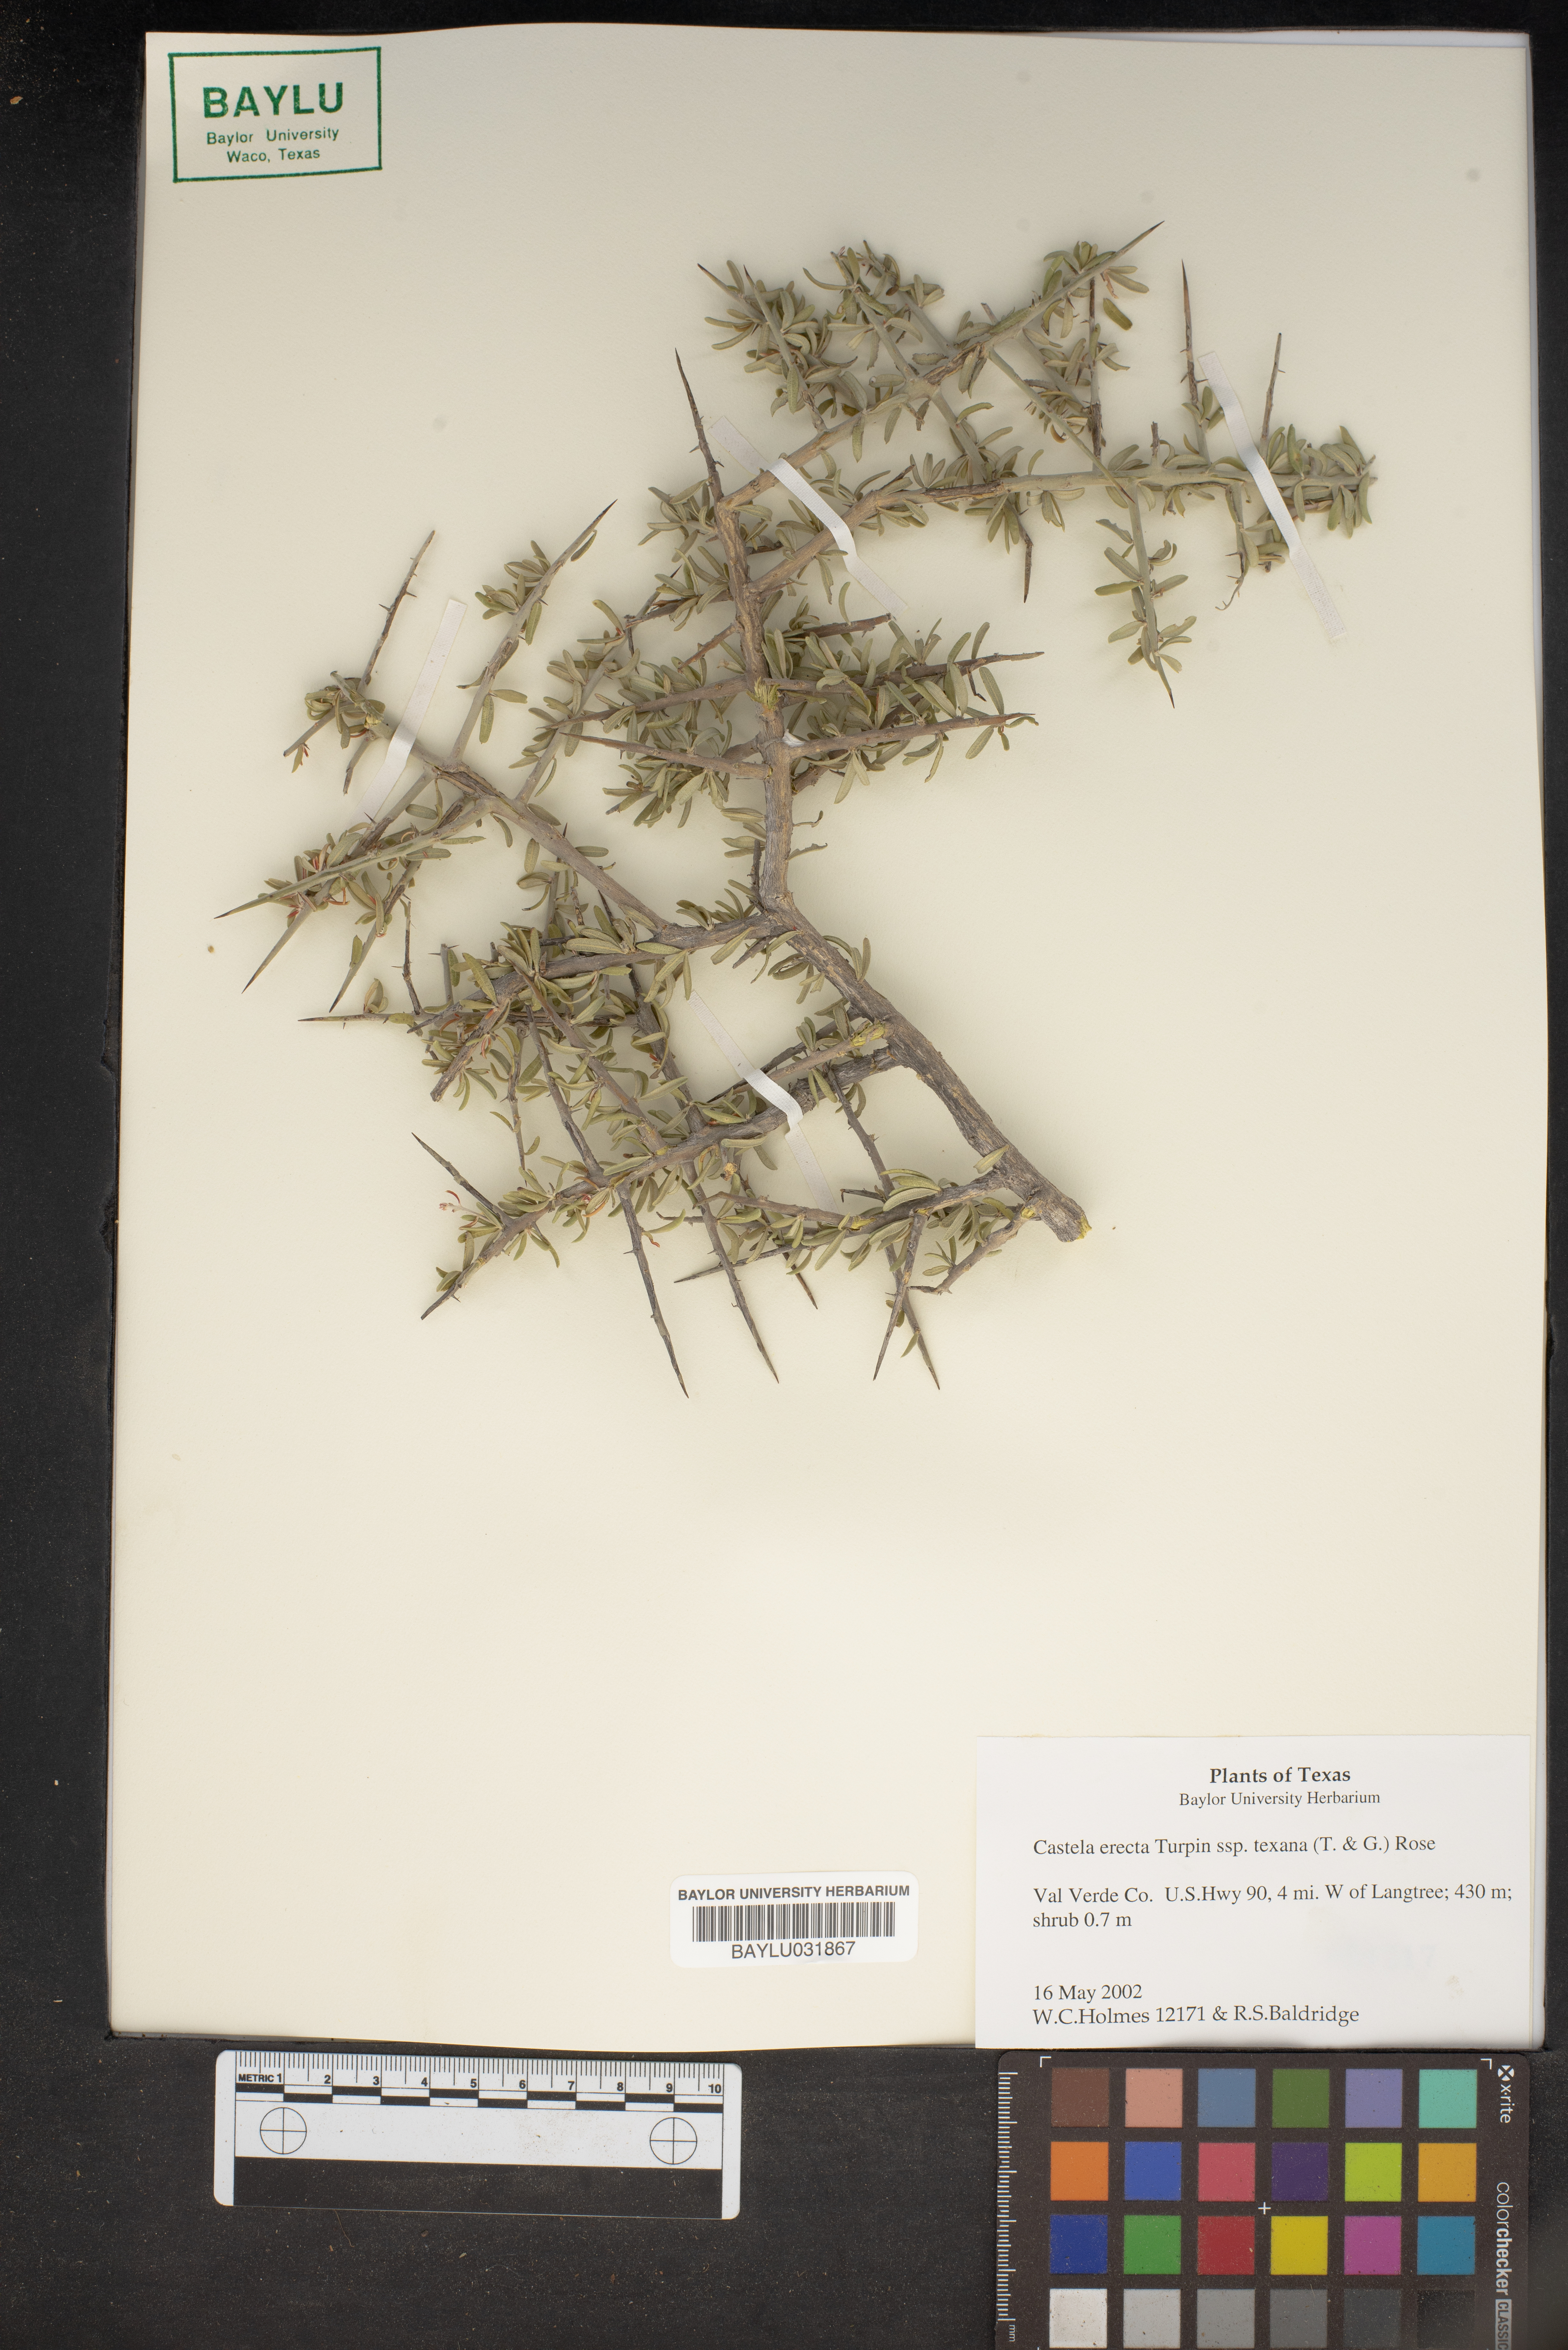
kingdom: Plantae
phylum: Tracheophyta
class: Magnoliopsida
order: Sapindales
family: Simaroubaceae
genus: Castela
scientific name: Castela tortuosa
